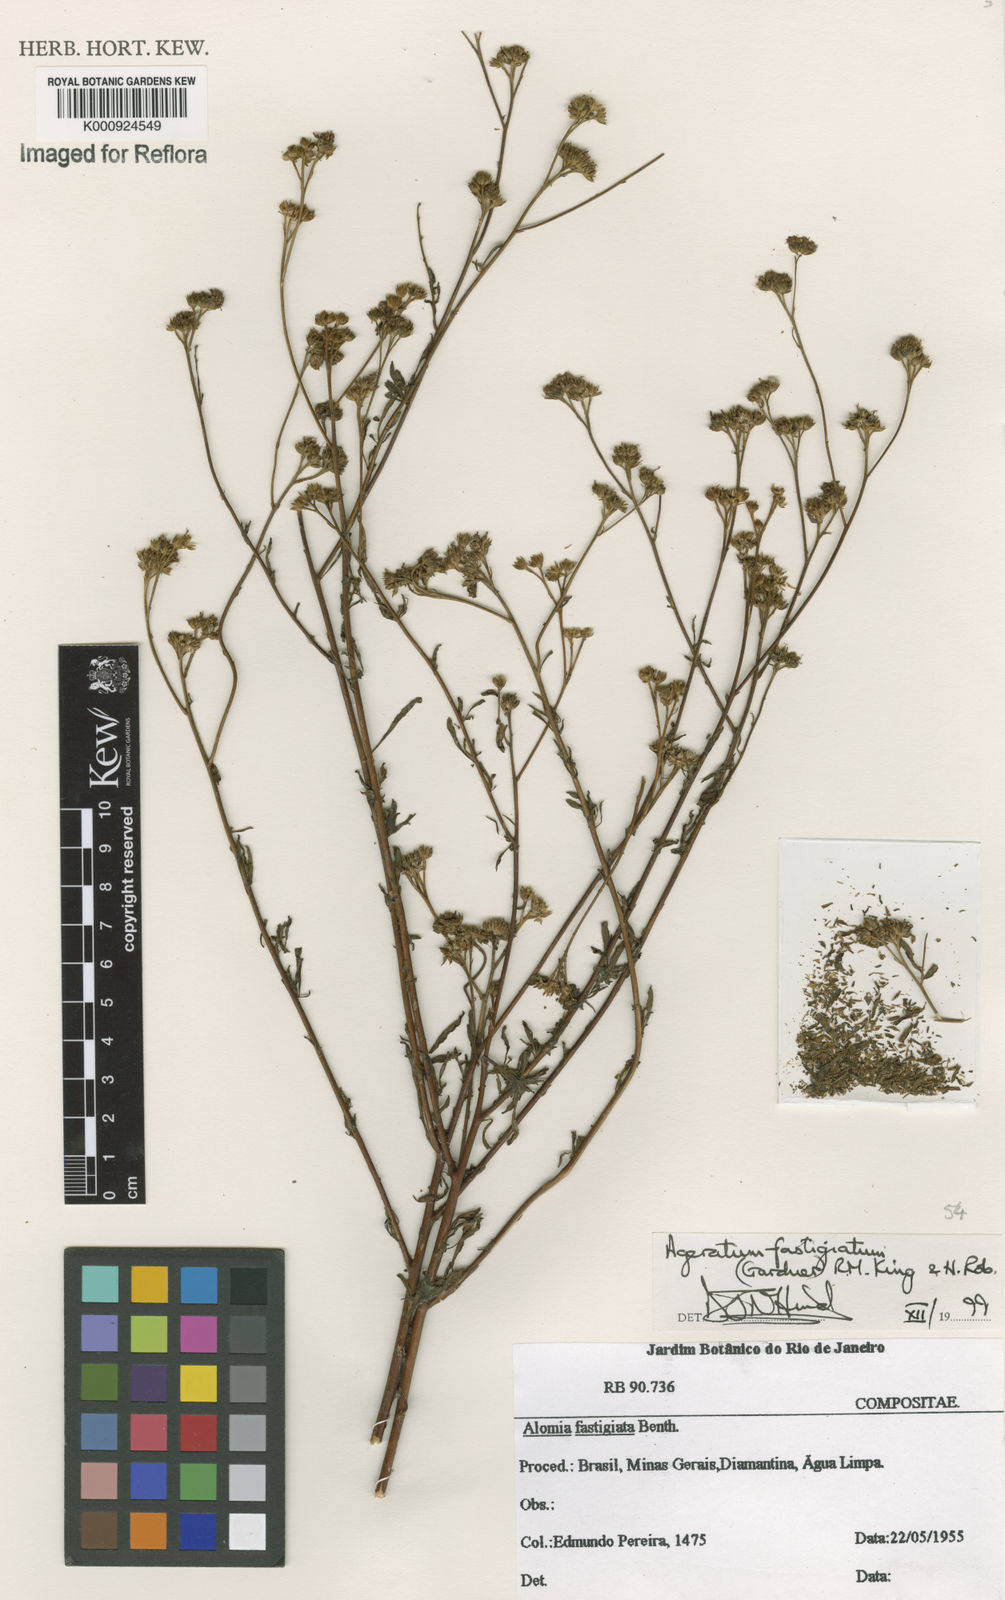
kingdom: Plantae
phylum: Tracheophyta
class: Magnoliopsida
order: Asterales
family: Asteraceae
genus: Ageratum
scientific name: Ageratum fastigiatum
